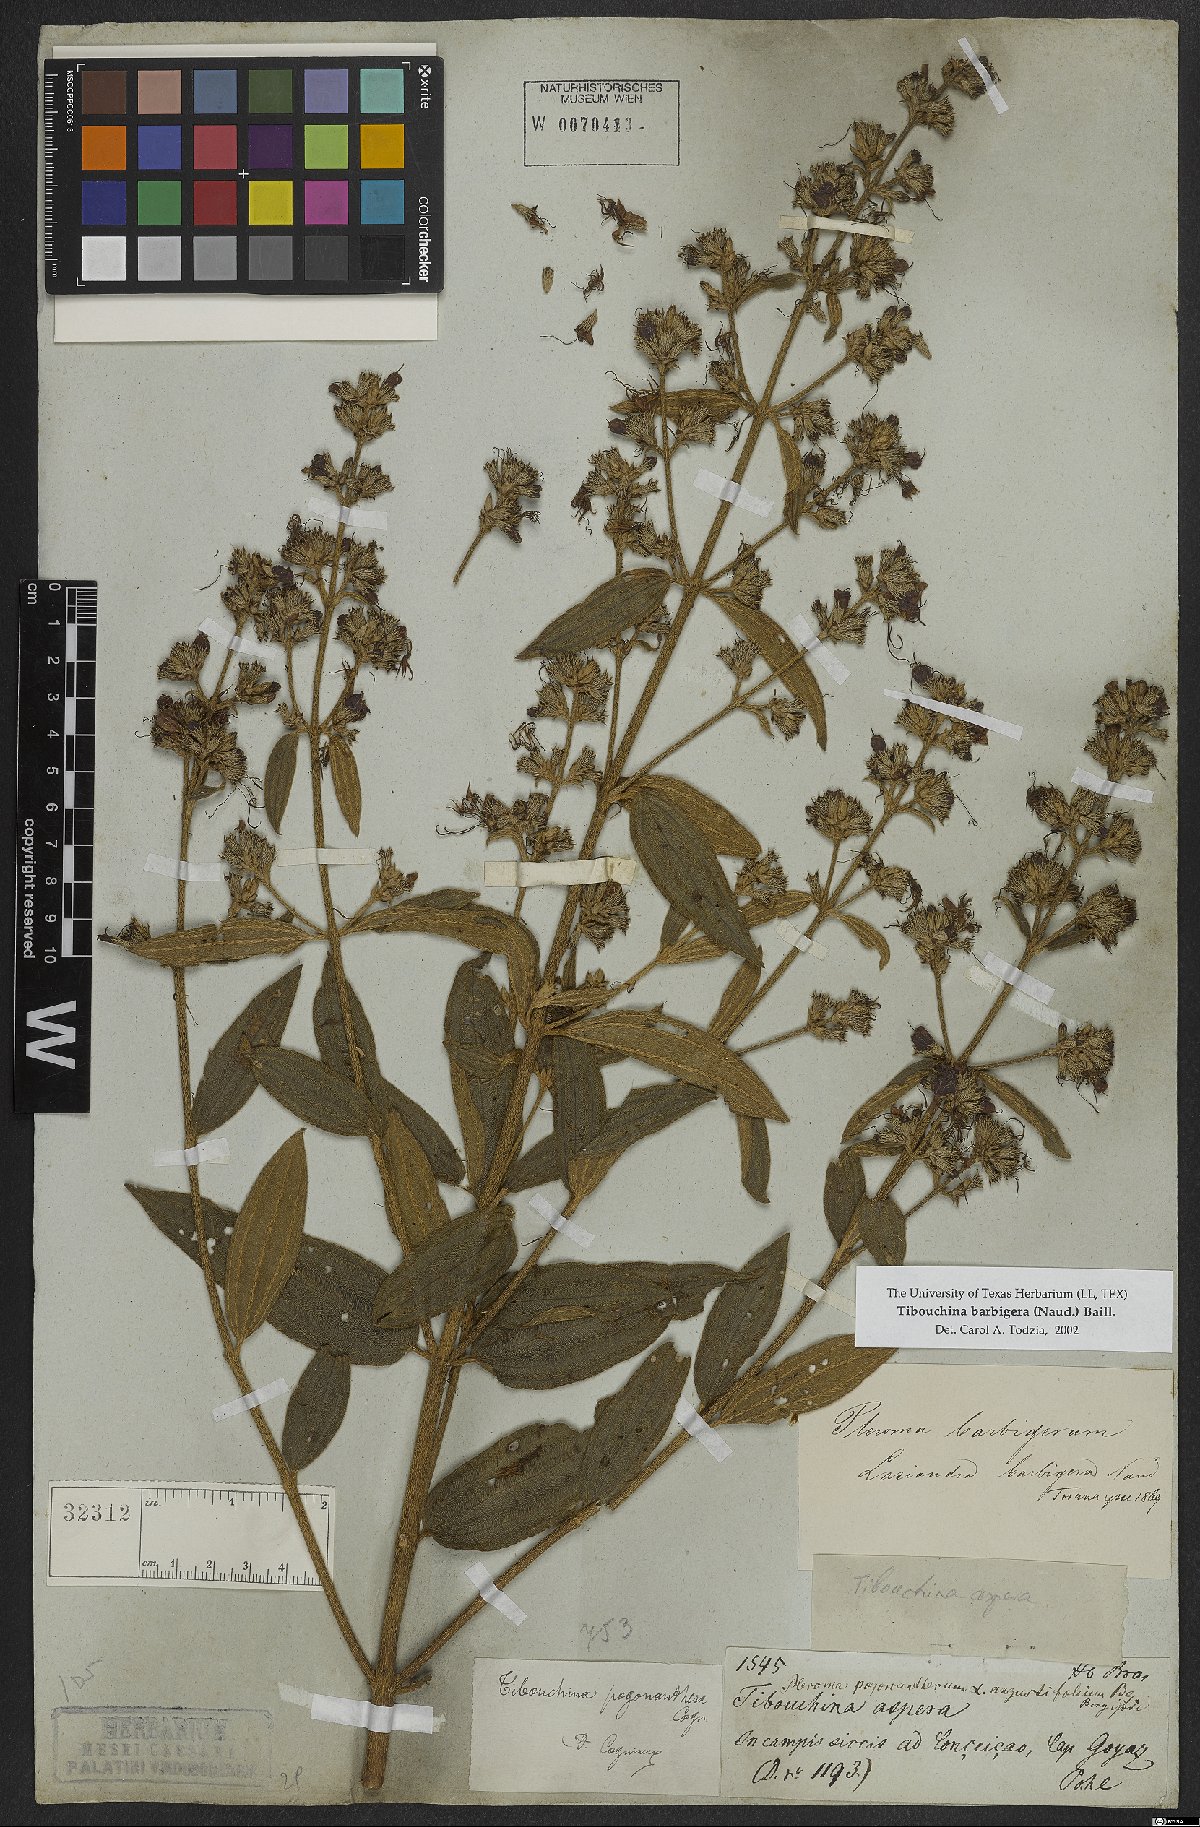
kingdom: Plantae
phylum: Tracheophyta
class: Magnoliopsida
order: Myrtales
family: Melastomataceae
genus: Pleroma
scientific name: Pleroma barbigerum
